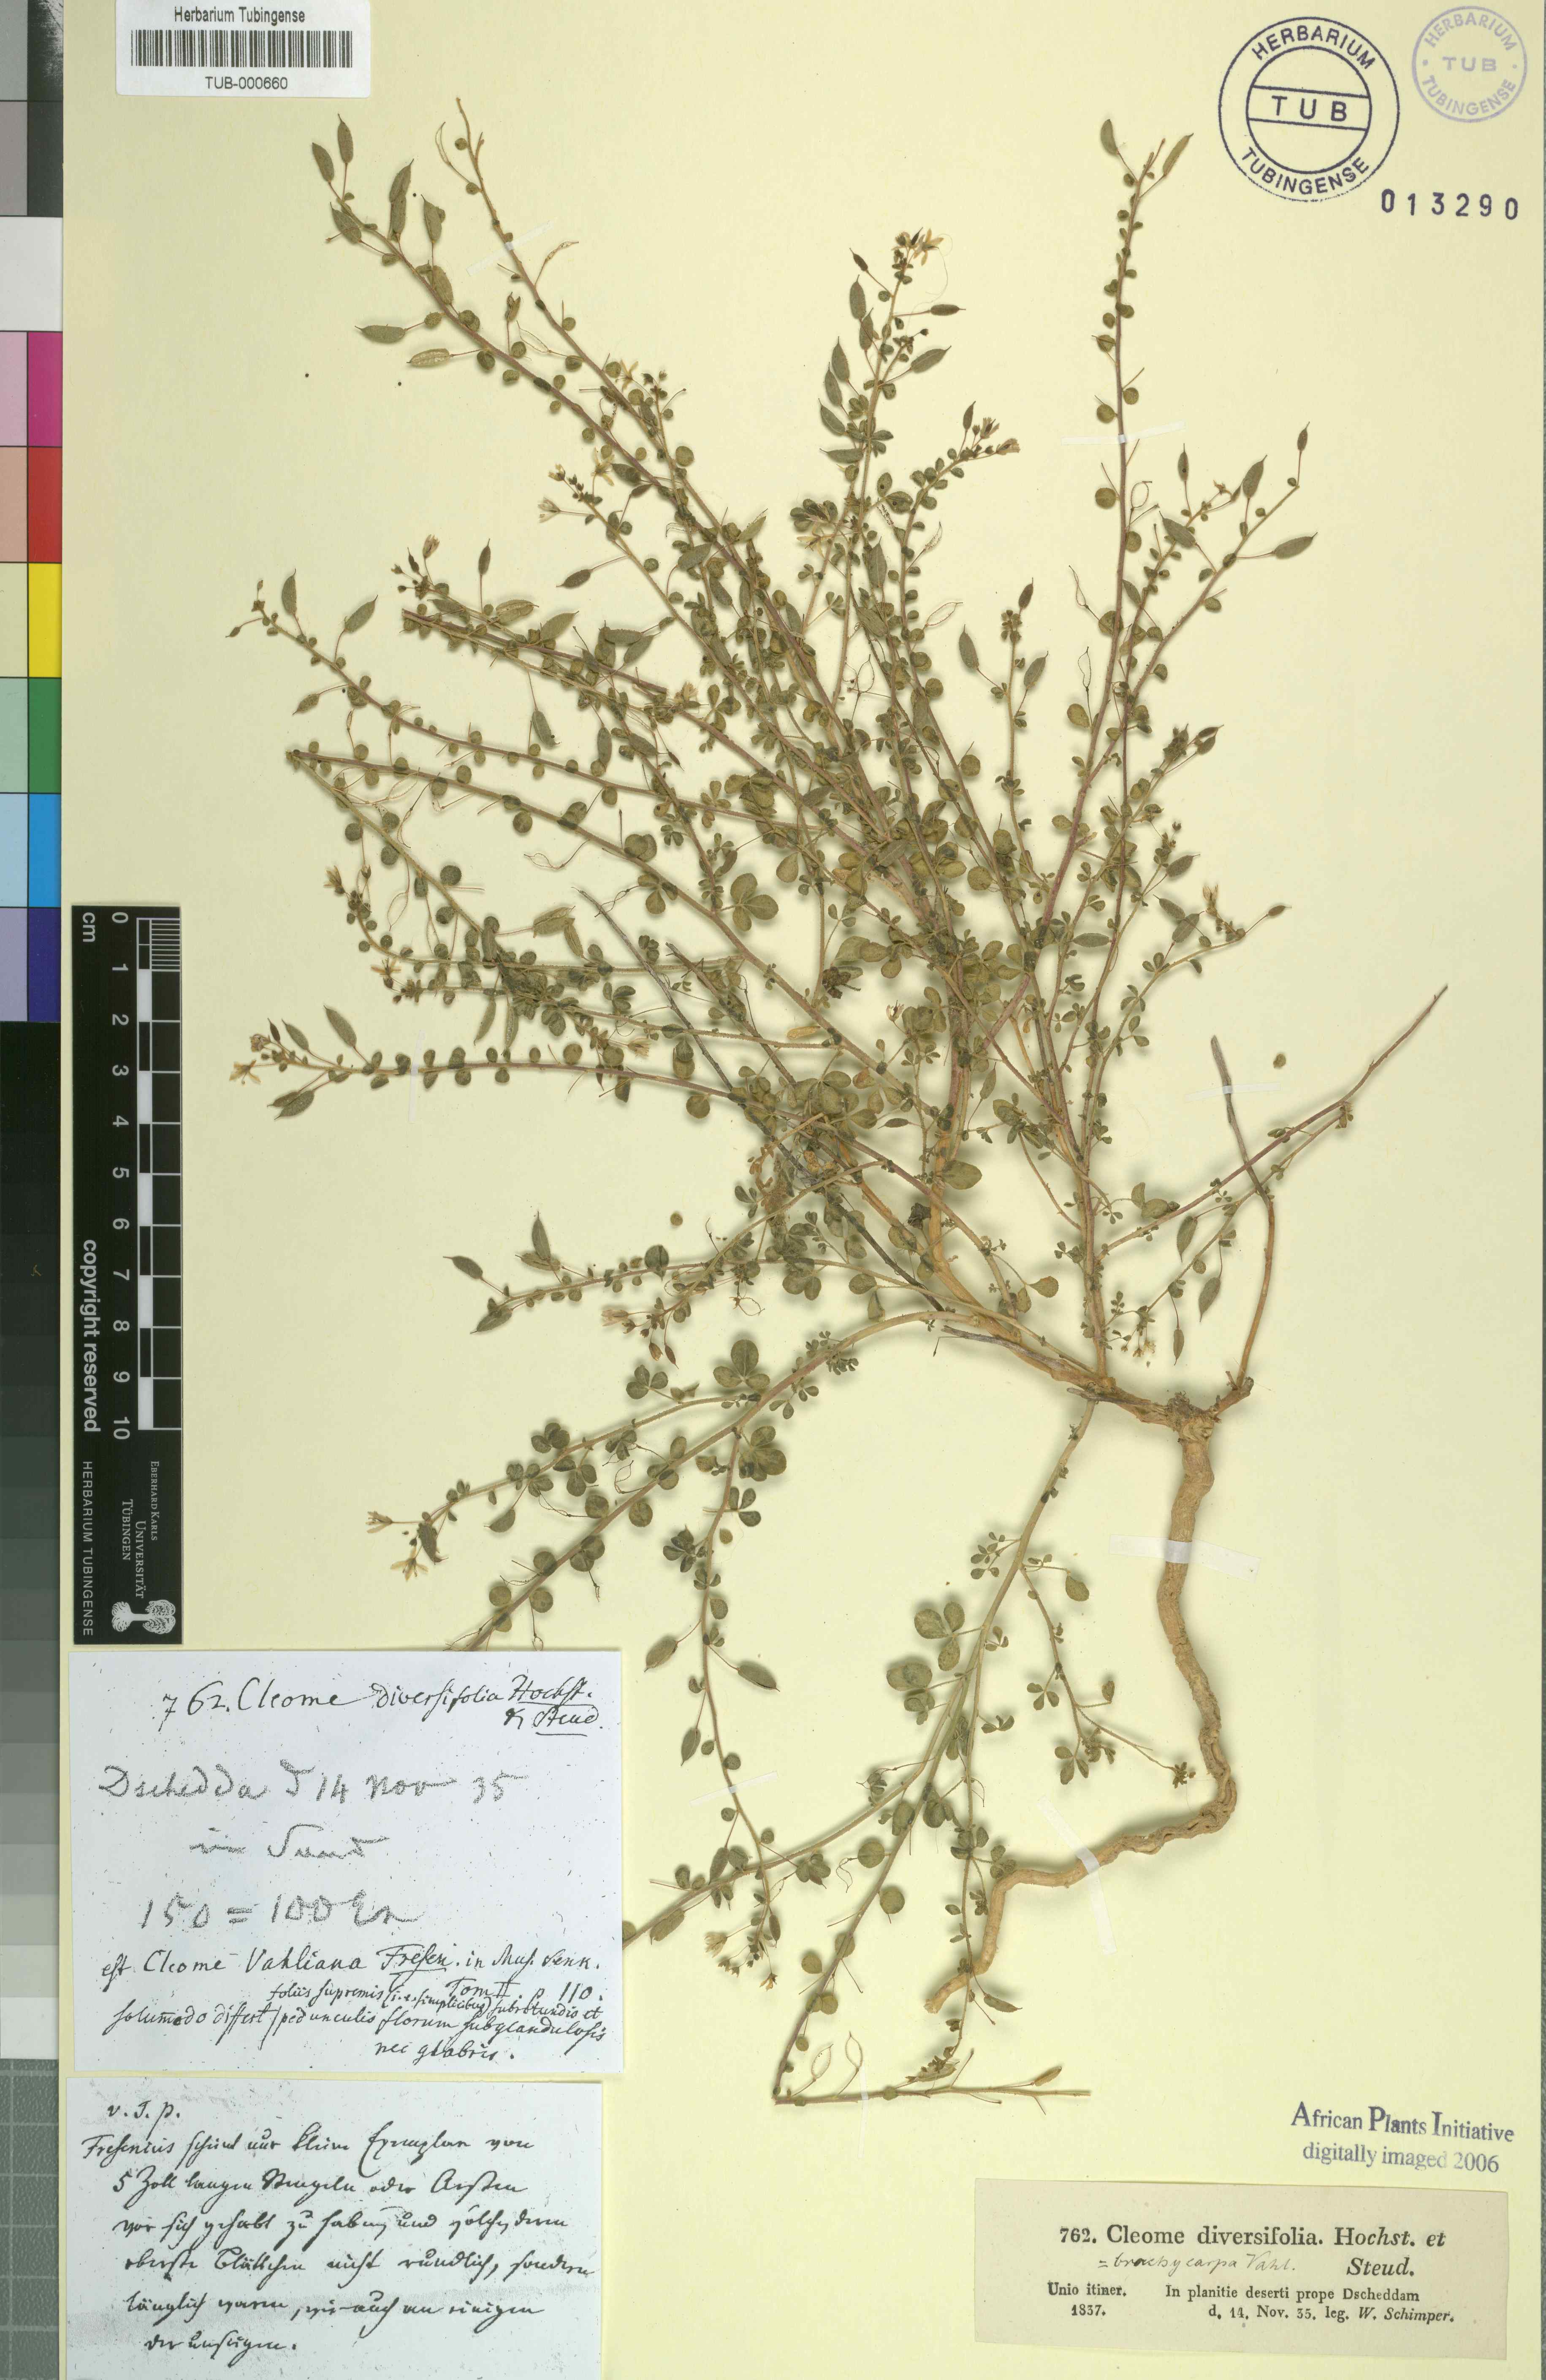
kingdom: Plantae
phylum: Tracheophyta
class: Magnoliopsida
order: Brassicales
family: Cleomaceae
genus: Stylidocleome
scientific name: Stylidocleome brachycarpa
